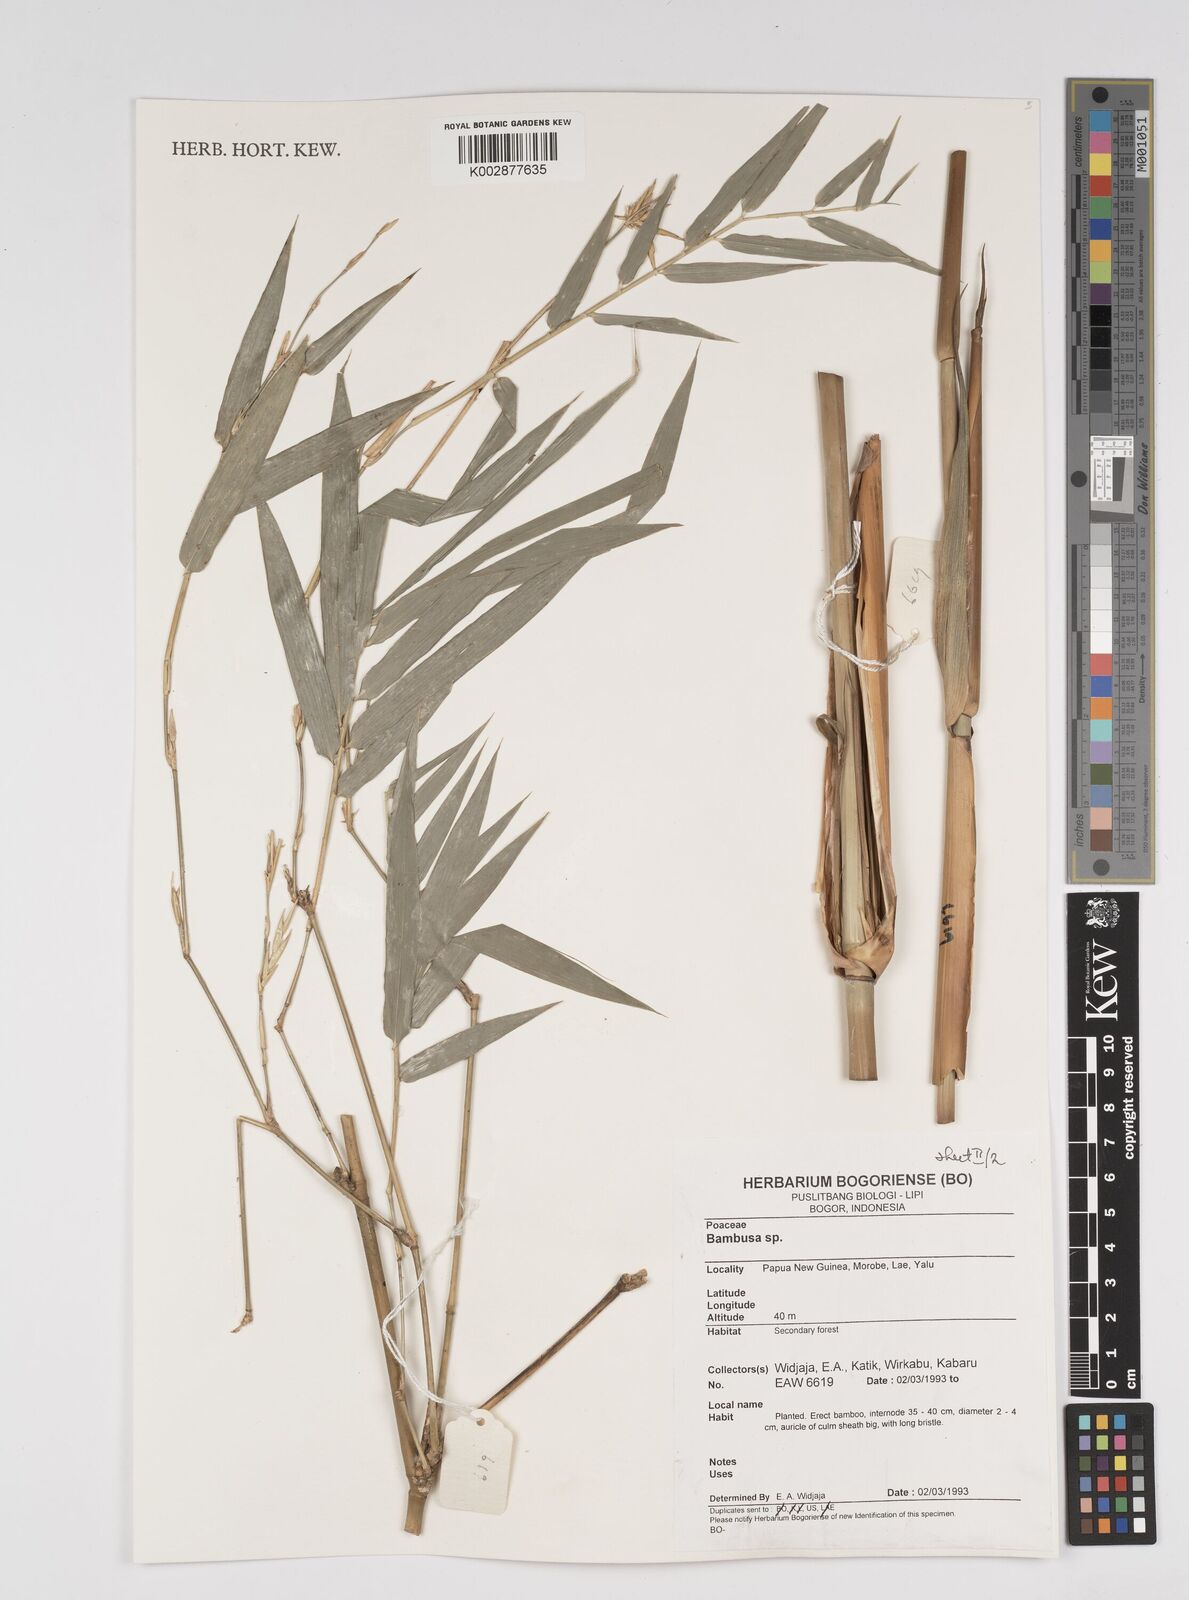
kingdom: Plantae
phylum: Tracheophyta
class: Liliopsida
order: Poales
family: Poaceae
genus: Bambusa
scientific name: Bambusa
